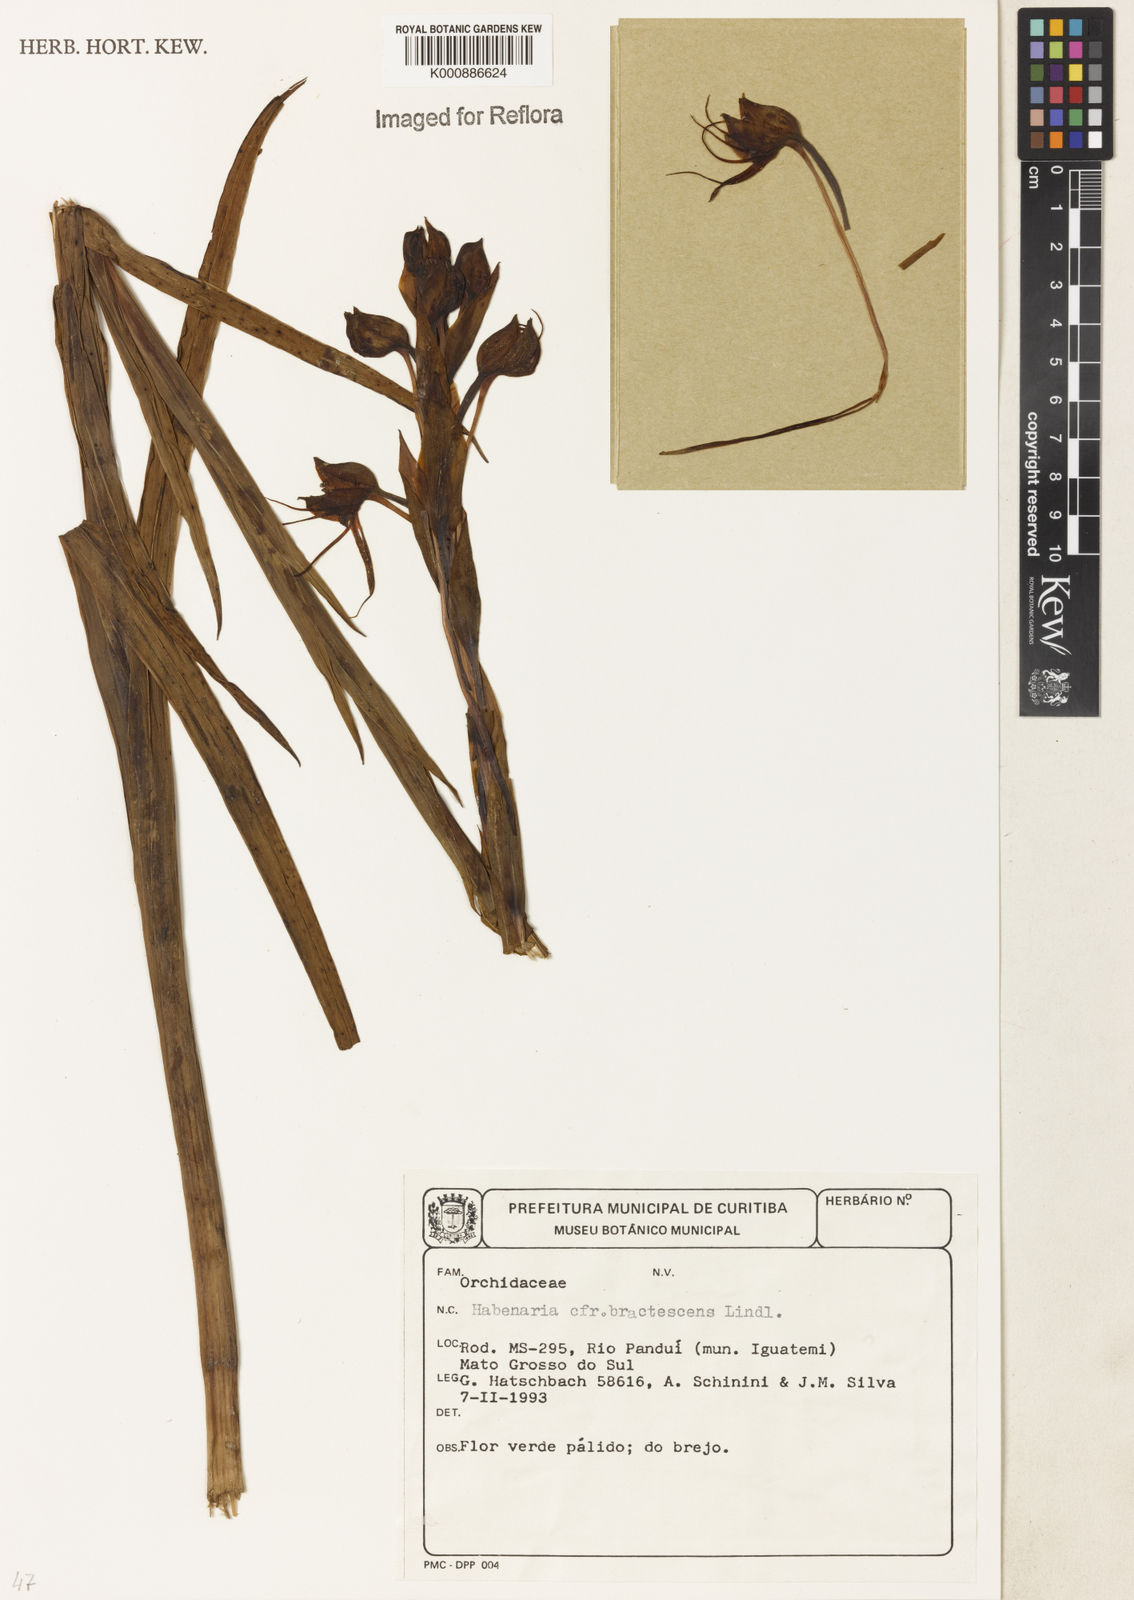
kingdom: Plantae
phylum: Tracheophyta
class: Liliopsida
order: Asparagales
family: Orchidaceae
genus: Habenaria
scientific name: Habenaria gourlieana
